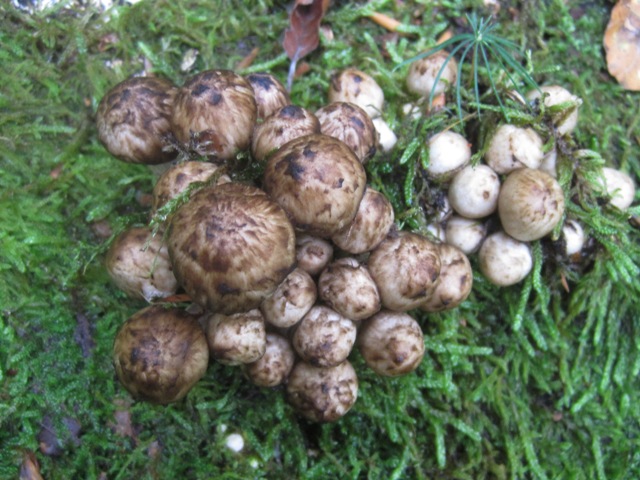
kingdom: Fungi
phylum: Basidiomycota
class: Agaricomycetes
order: Agaricales
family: Psathyrellaceae
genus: Psathyrella
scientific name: Psathyrella cotonea
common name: skællet mørkhat
